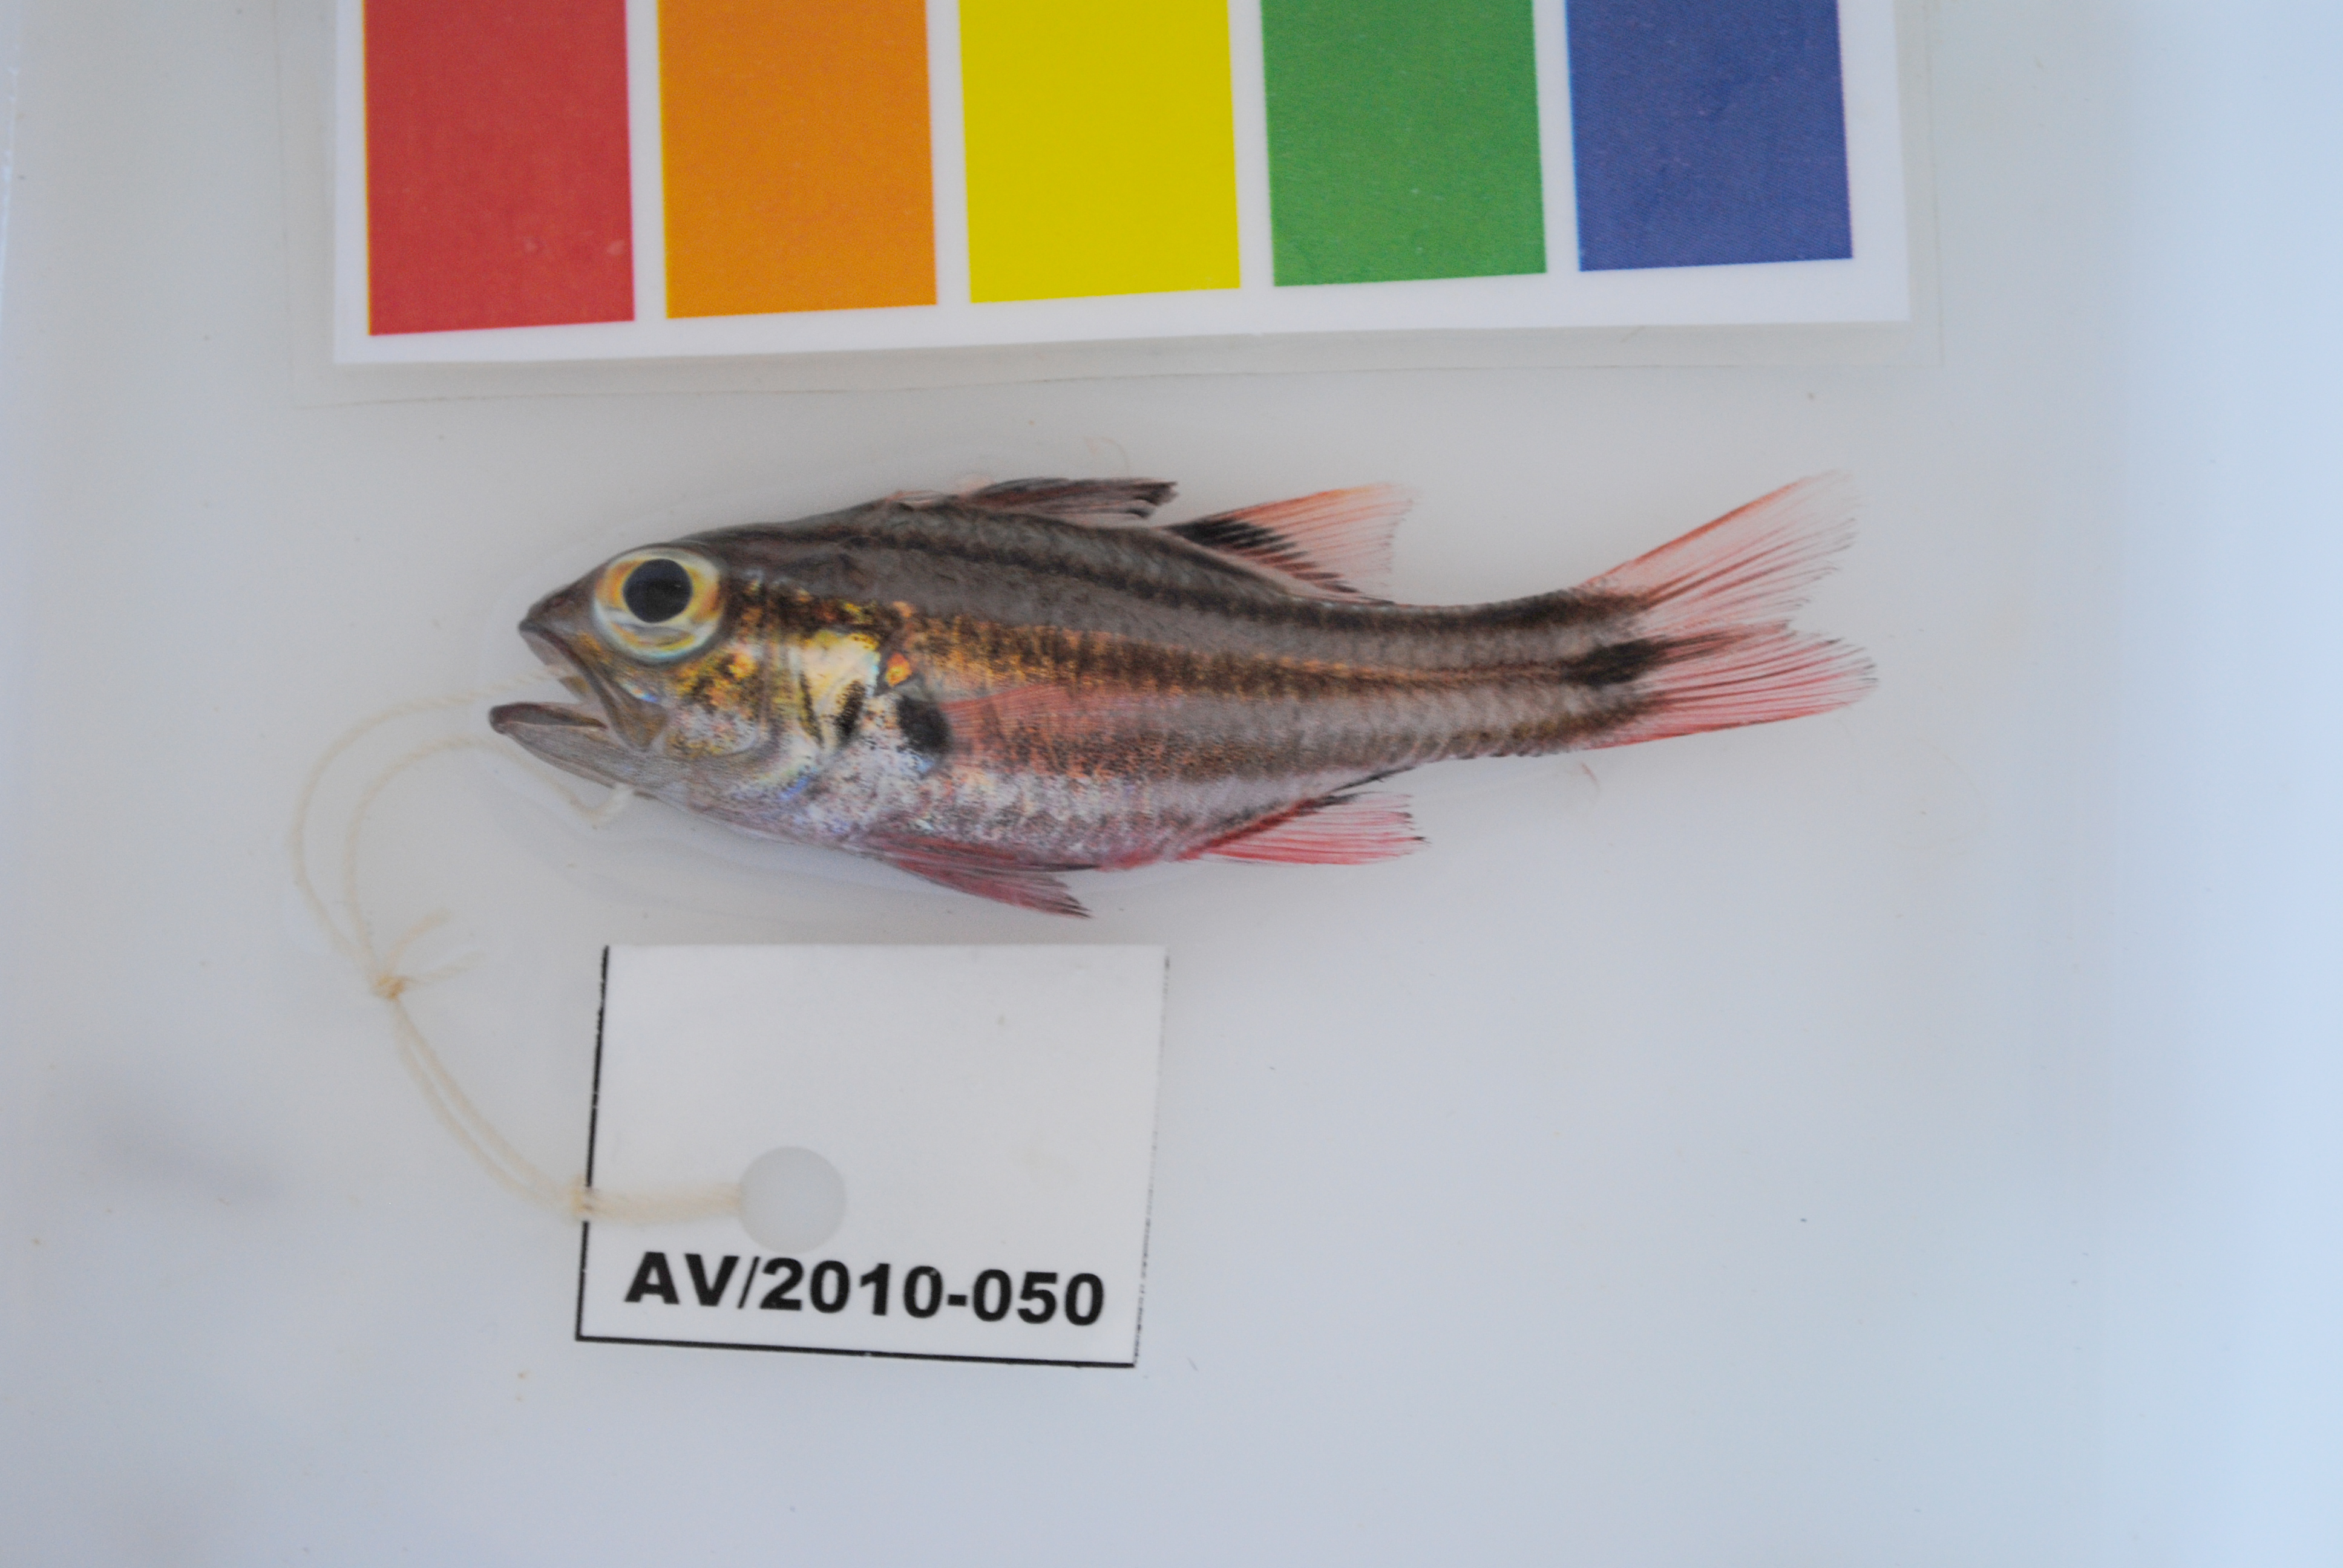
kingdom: Animalia
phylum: Chordata
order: Perciformes
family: Apogonidae
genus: Ostorhinchus
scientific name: Ostorhinchus holotaenia
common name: Copperstriped cardinalfish
